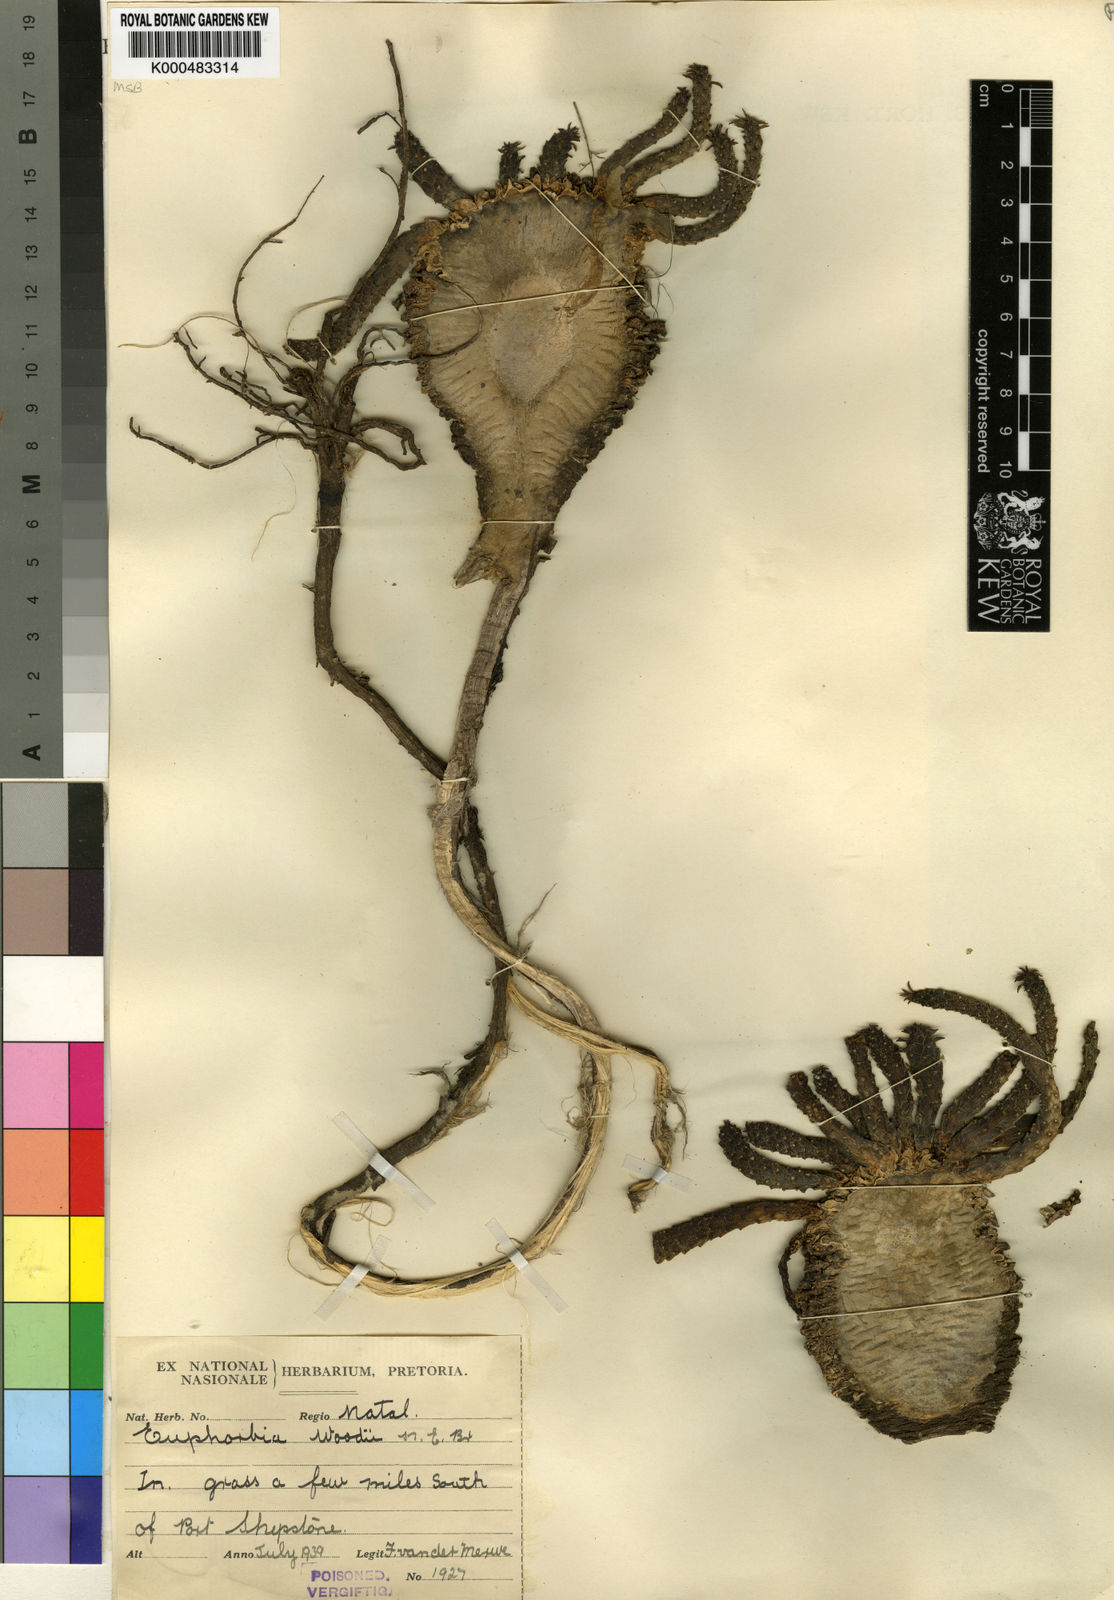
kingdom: Plantae
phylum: Tracheophyta
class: Magnoliopsida
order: Malpighiales
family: Euphorbiaceae
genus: Euphorbia
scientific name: Euphorbia woodii
